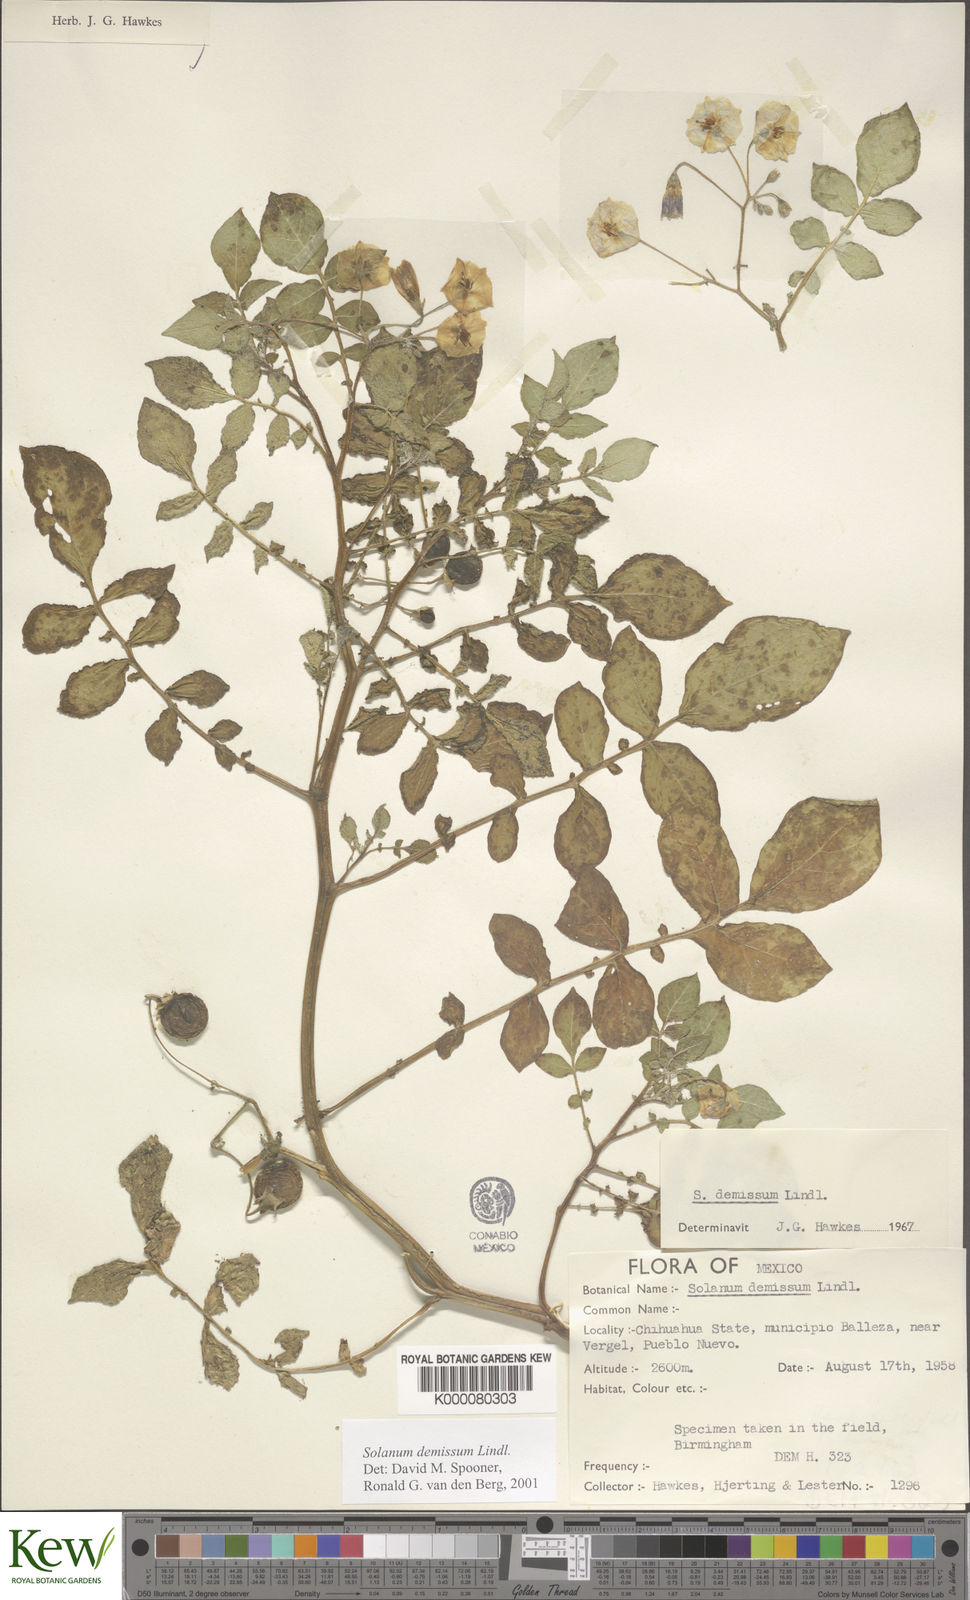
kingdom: Plantae
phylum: Tracheophyta
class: Magnoliopsida
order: Solanales
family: Solanaceae
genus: Solanum
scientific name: Solanum demissum
